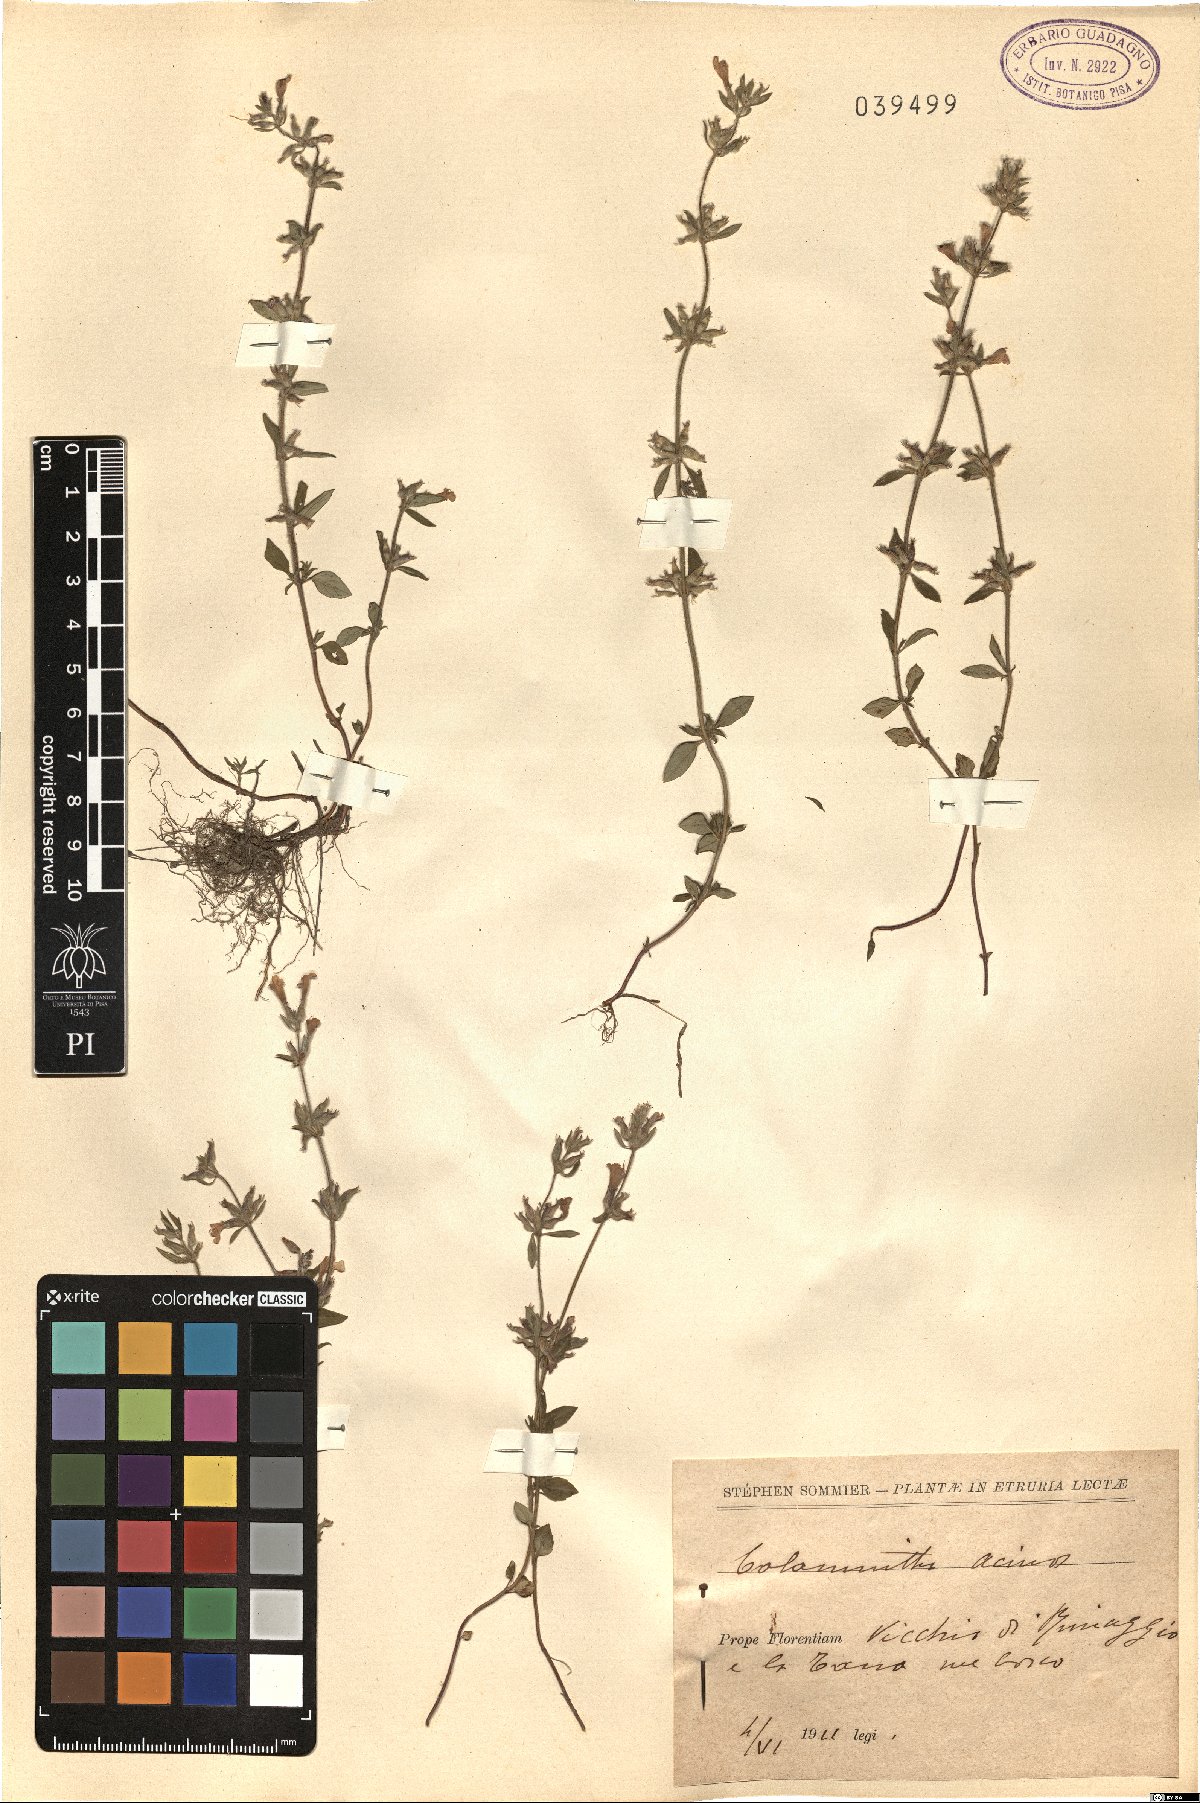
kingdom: Plantae
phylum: Tracheophyta
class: Magnoliopsida
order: Lamiales
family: Lamiaceae
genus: Clinopodium
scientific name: Clinopodium acinos
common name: Basil thyme
